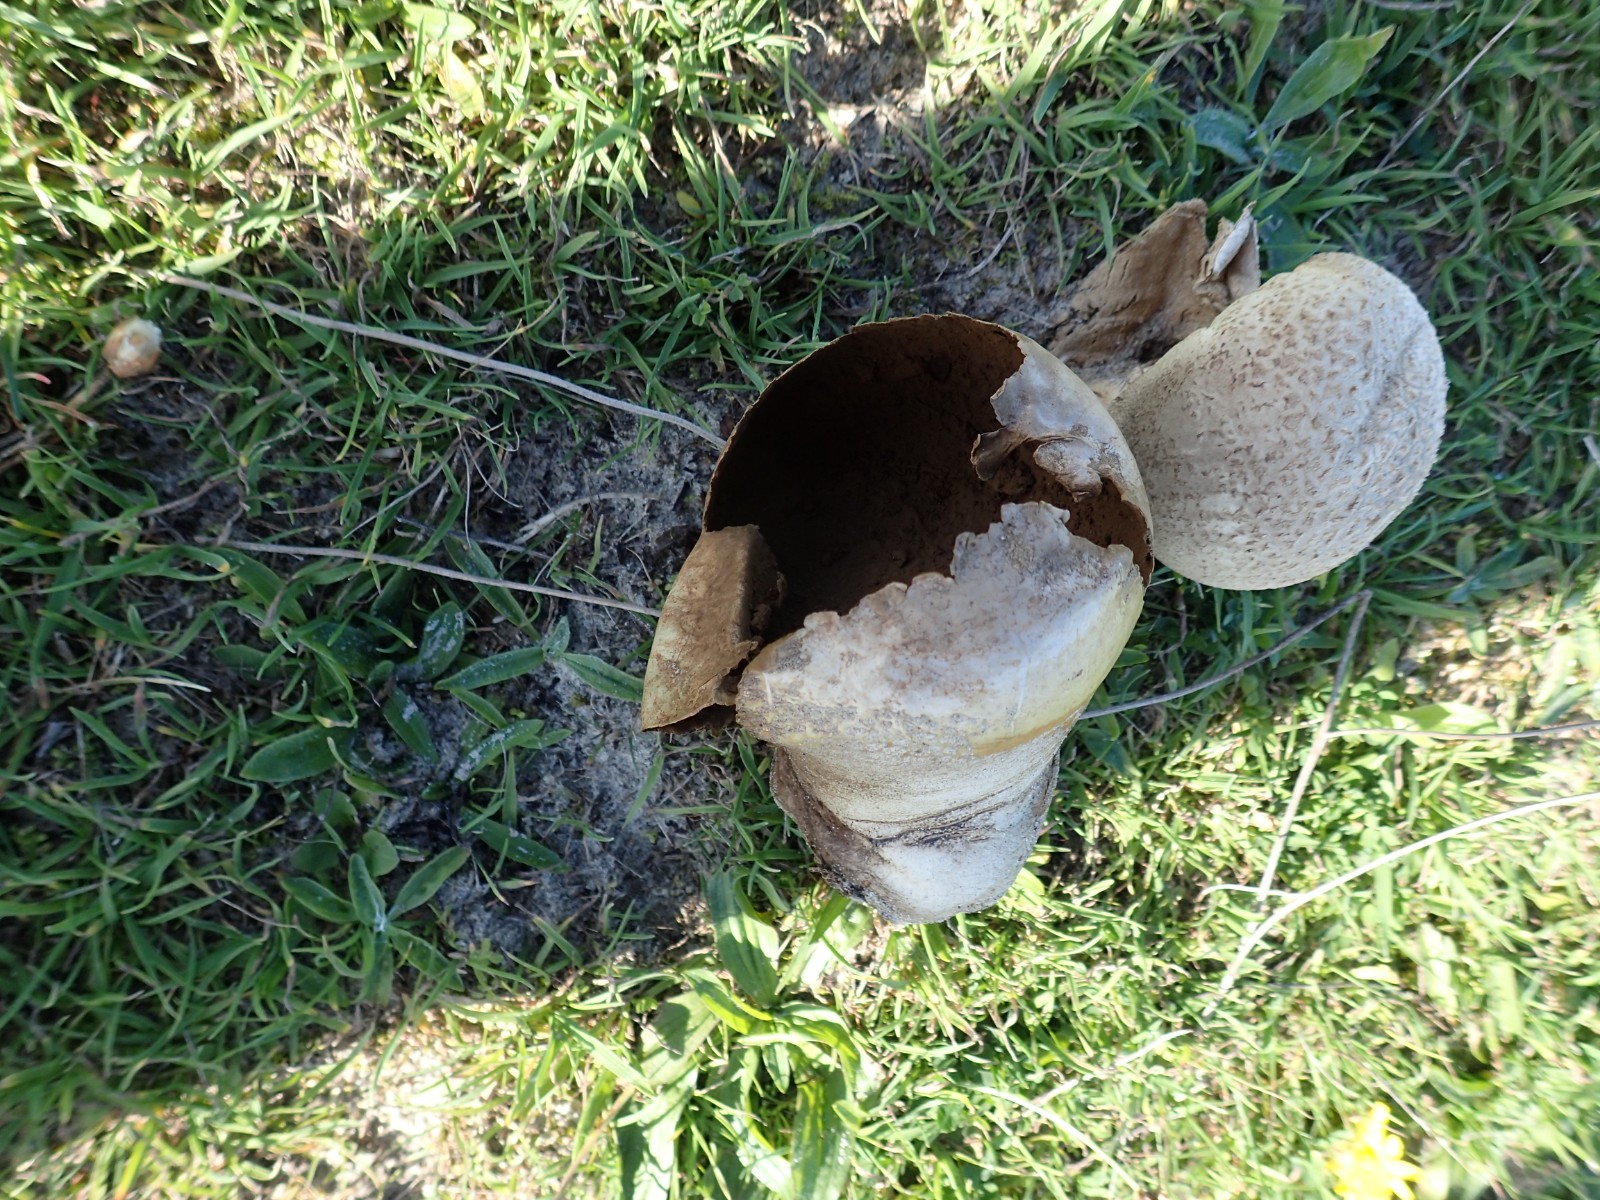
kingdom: Fungi
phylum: Basidiomycota
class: Agaricomycetes
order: Agaricales
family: Lycoperdaceae
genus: Bovistella
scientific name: Bovistella utriformis
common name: skællet støvbold
